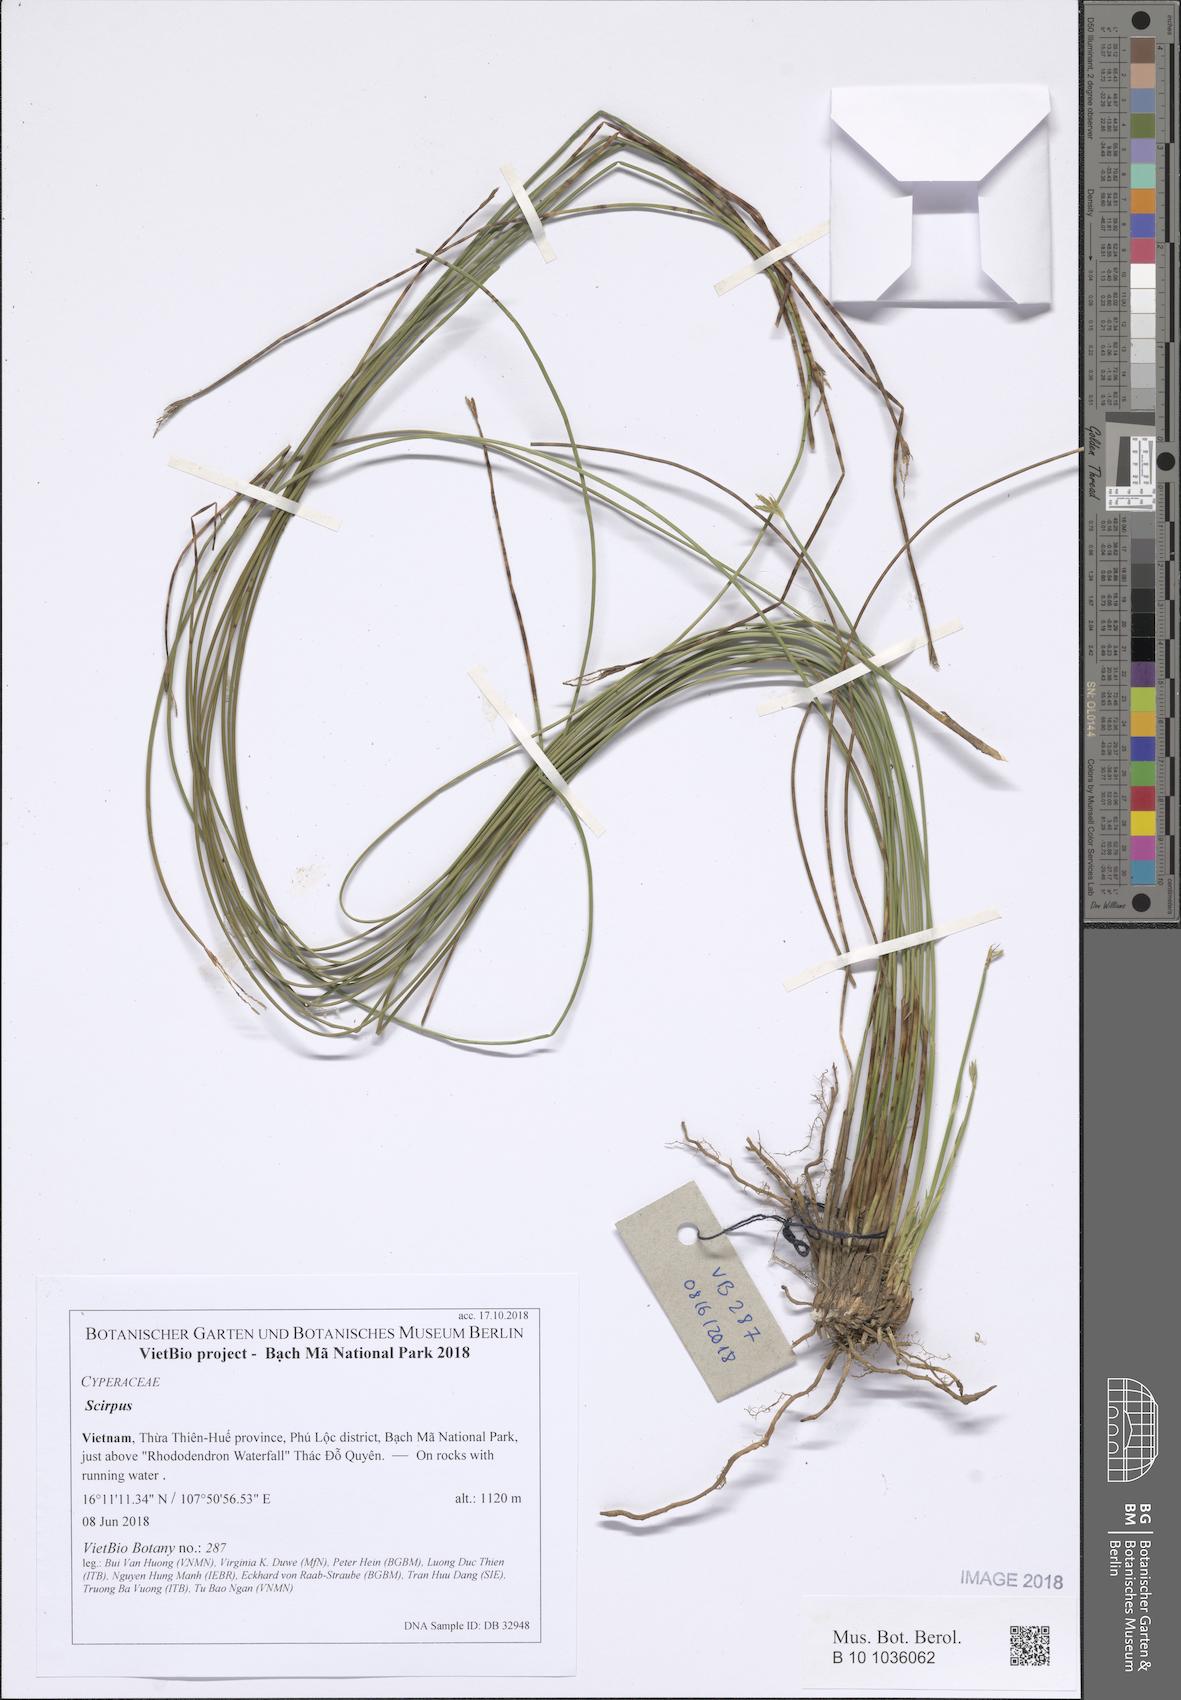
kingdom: Plantae
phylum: Tracheophyta
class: Liliopsida
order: Poales
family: Cyperaceae
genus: Scirpus
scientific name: Scirpus
